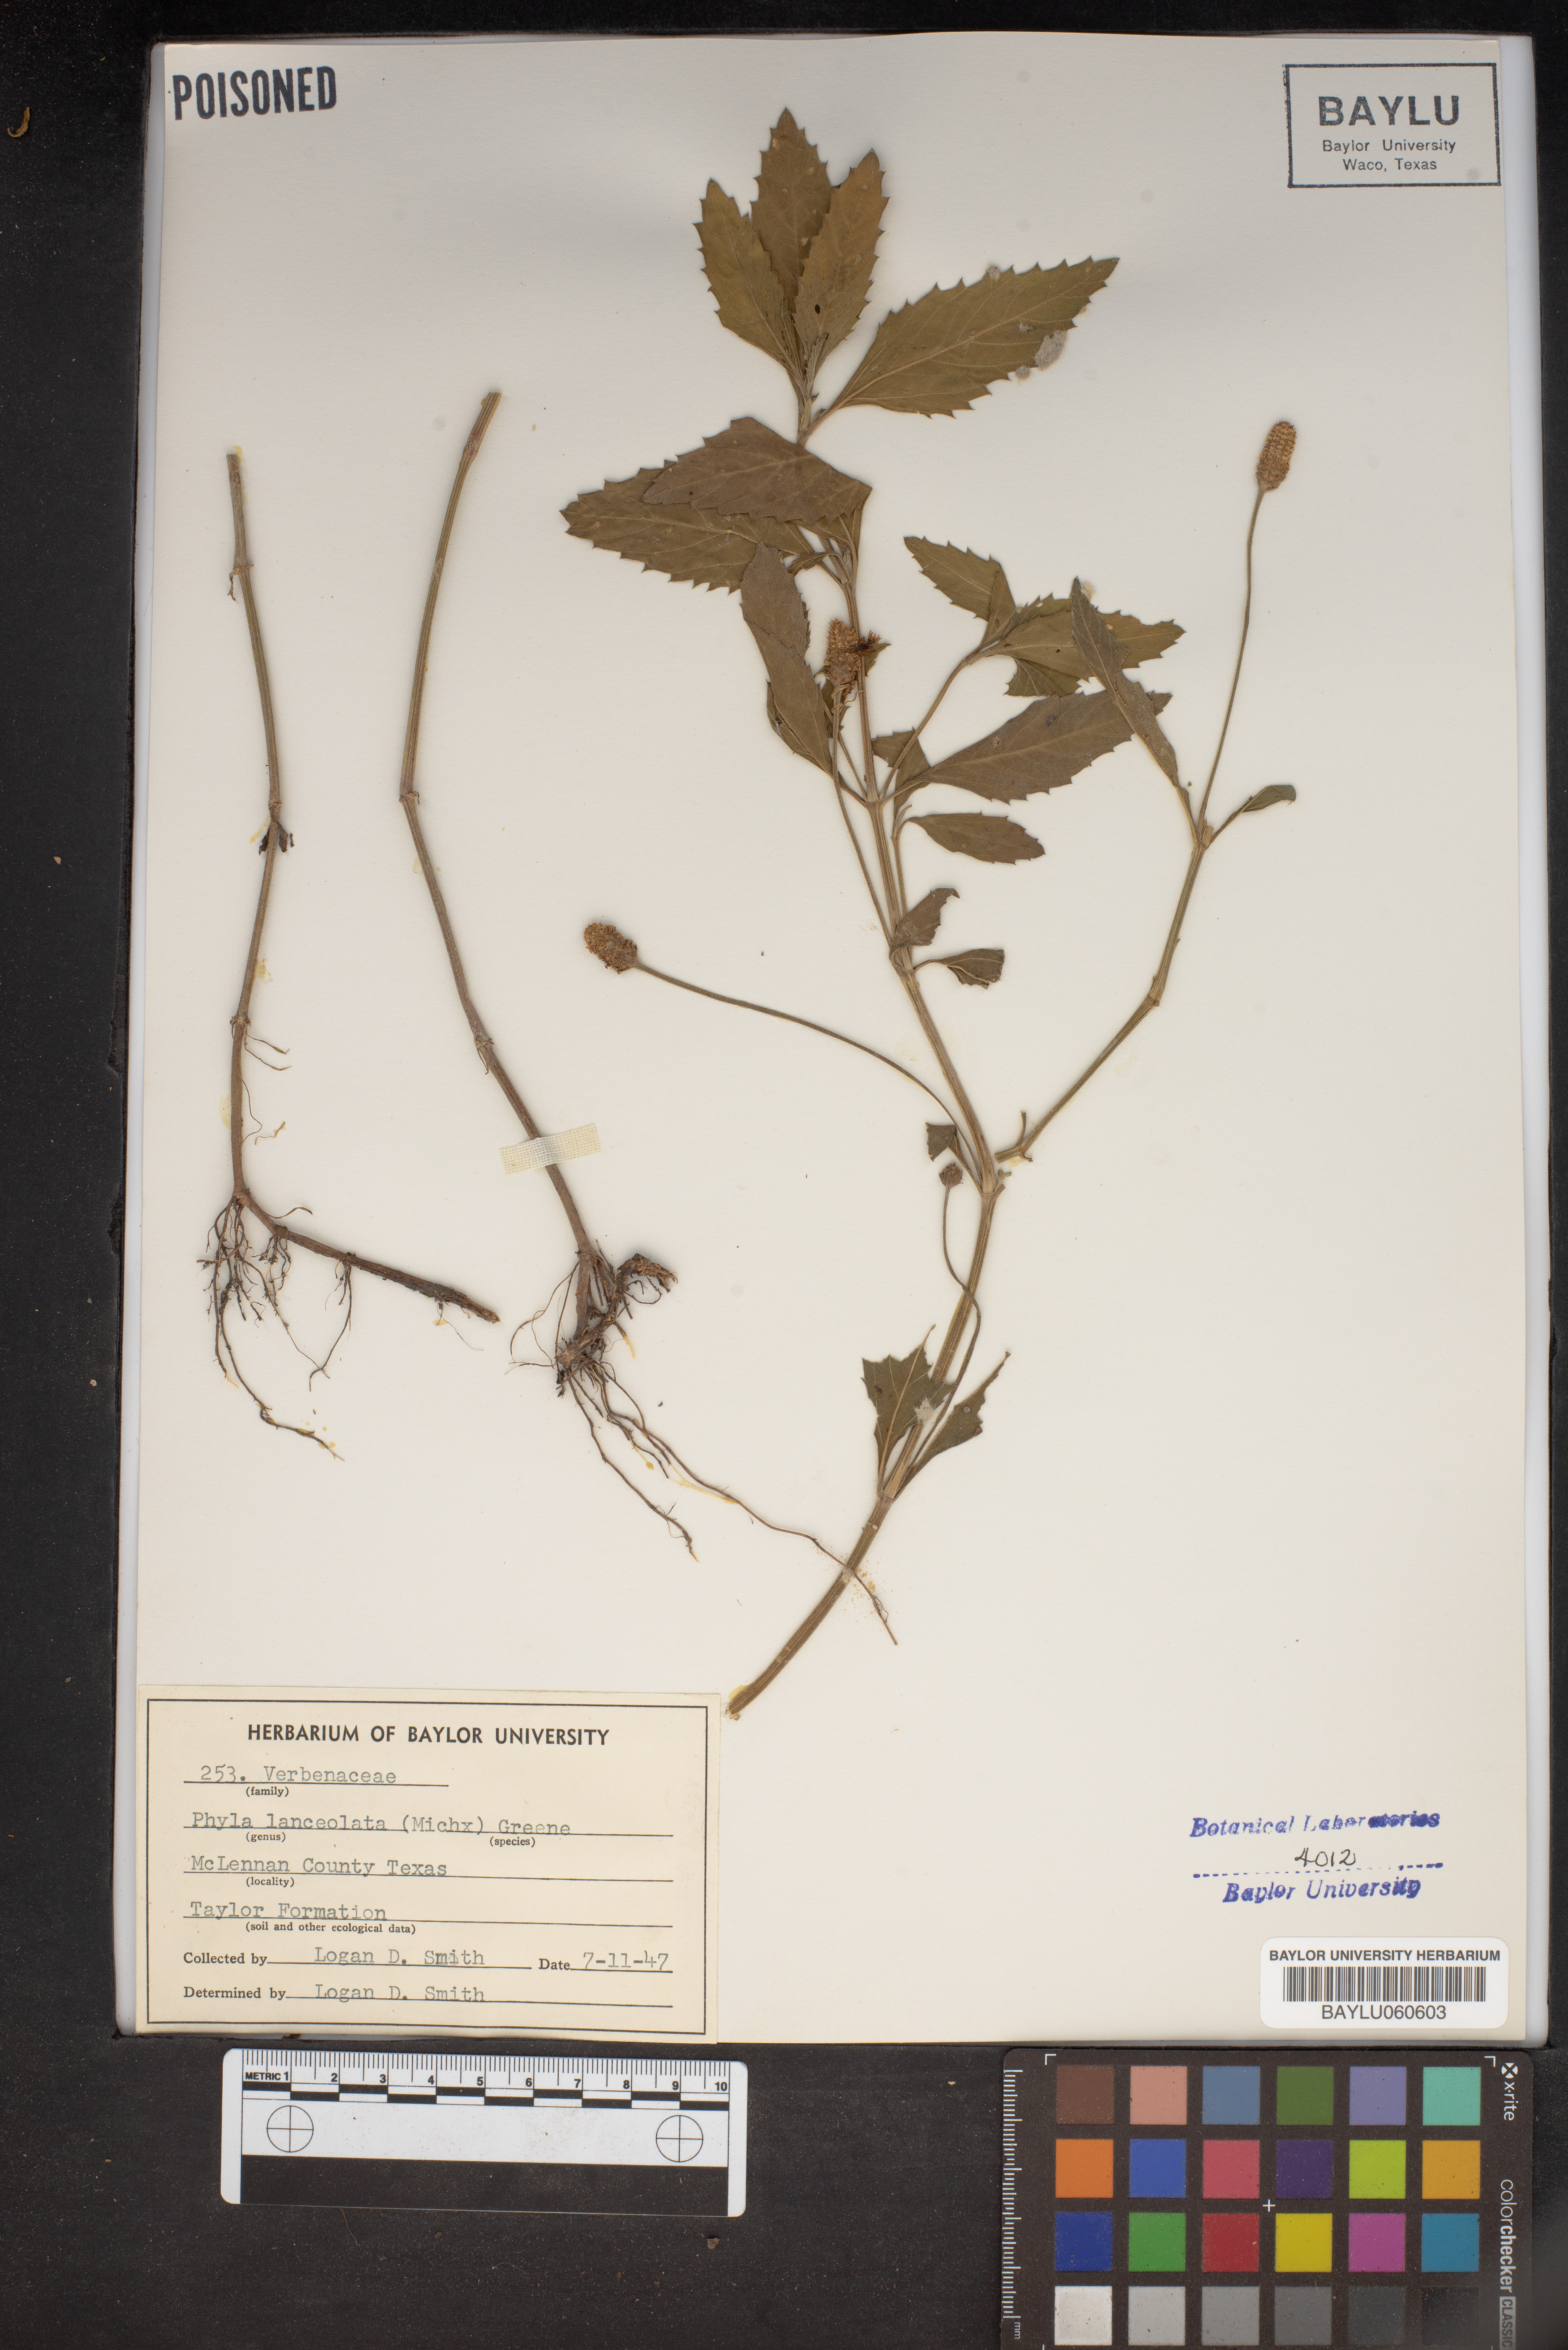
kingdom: Plantae
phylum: Tracheophyta
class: Magnoliopsida
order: Lamiales
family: Verbenaceae
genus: Phyla
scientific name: Phyla lanceolata
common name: Northern fogfruit
